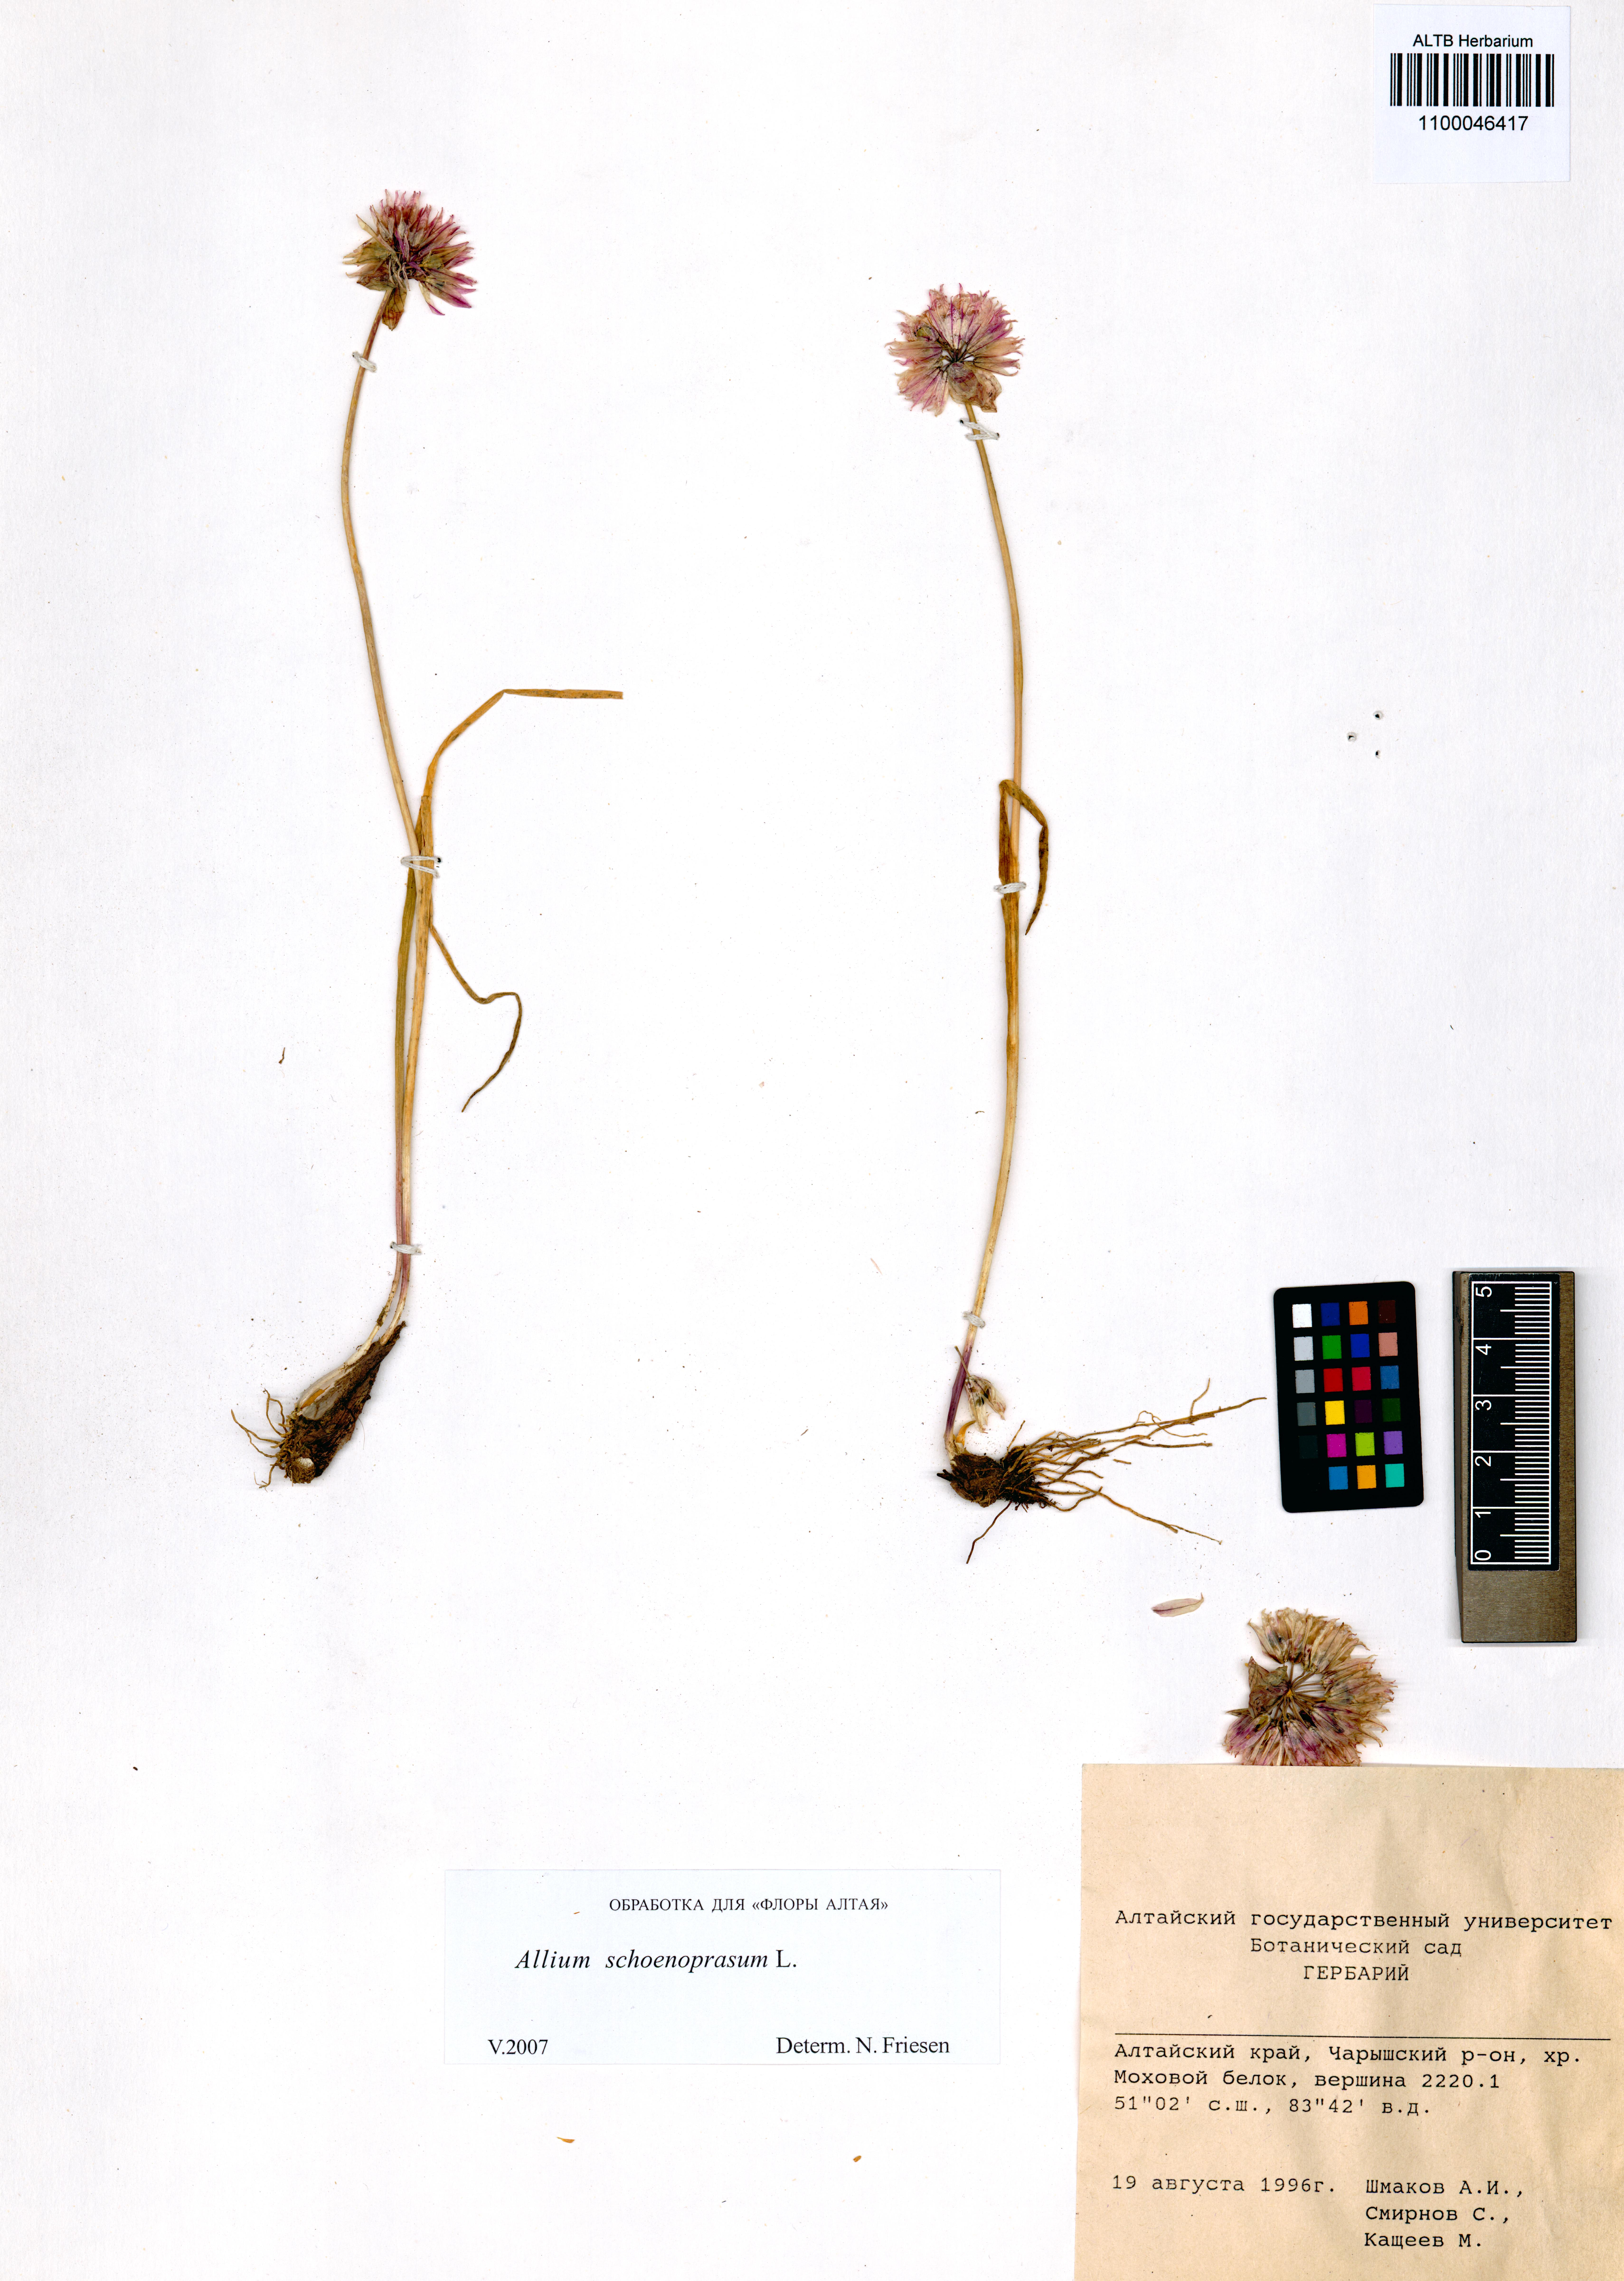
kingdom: Plantae
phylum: Tracheophyta
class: Liliopsida
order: Asparagales
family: Amaryllidaceae
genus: Allium
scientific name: Allium schoenoprasum
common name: Chives
